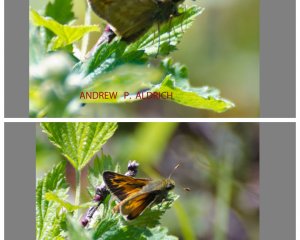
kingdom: Animalia
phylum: Arthropoda
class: Insecta
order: Lepidoptera
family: Hesperiidae
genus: Polites
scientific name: Polites
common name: Long Dash Skipper
